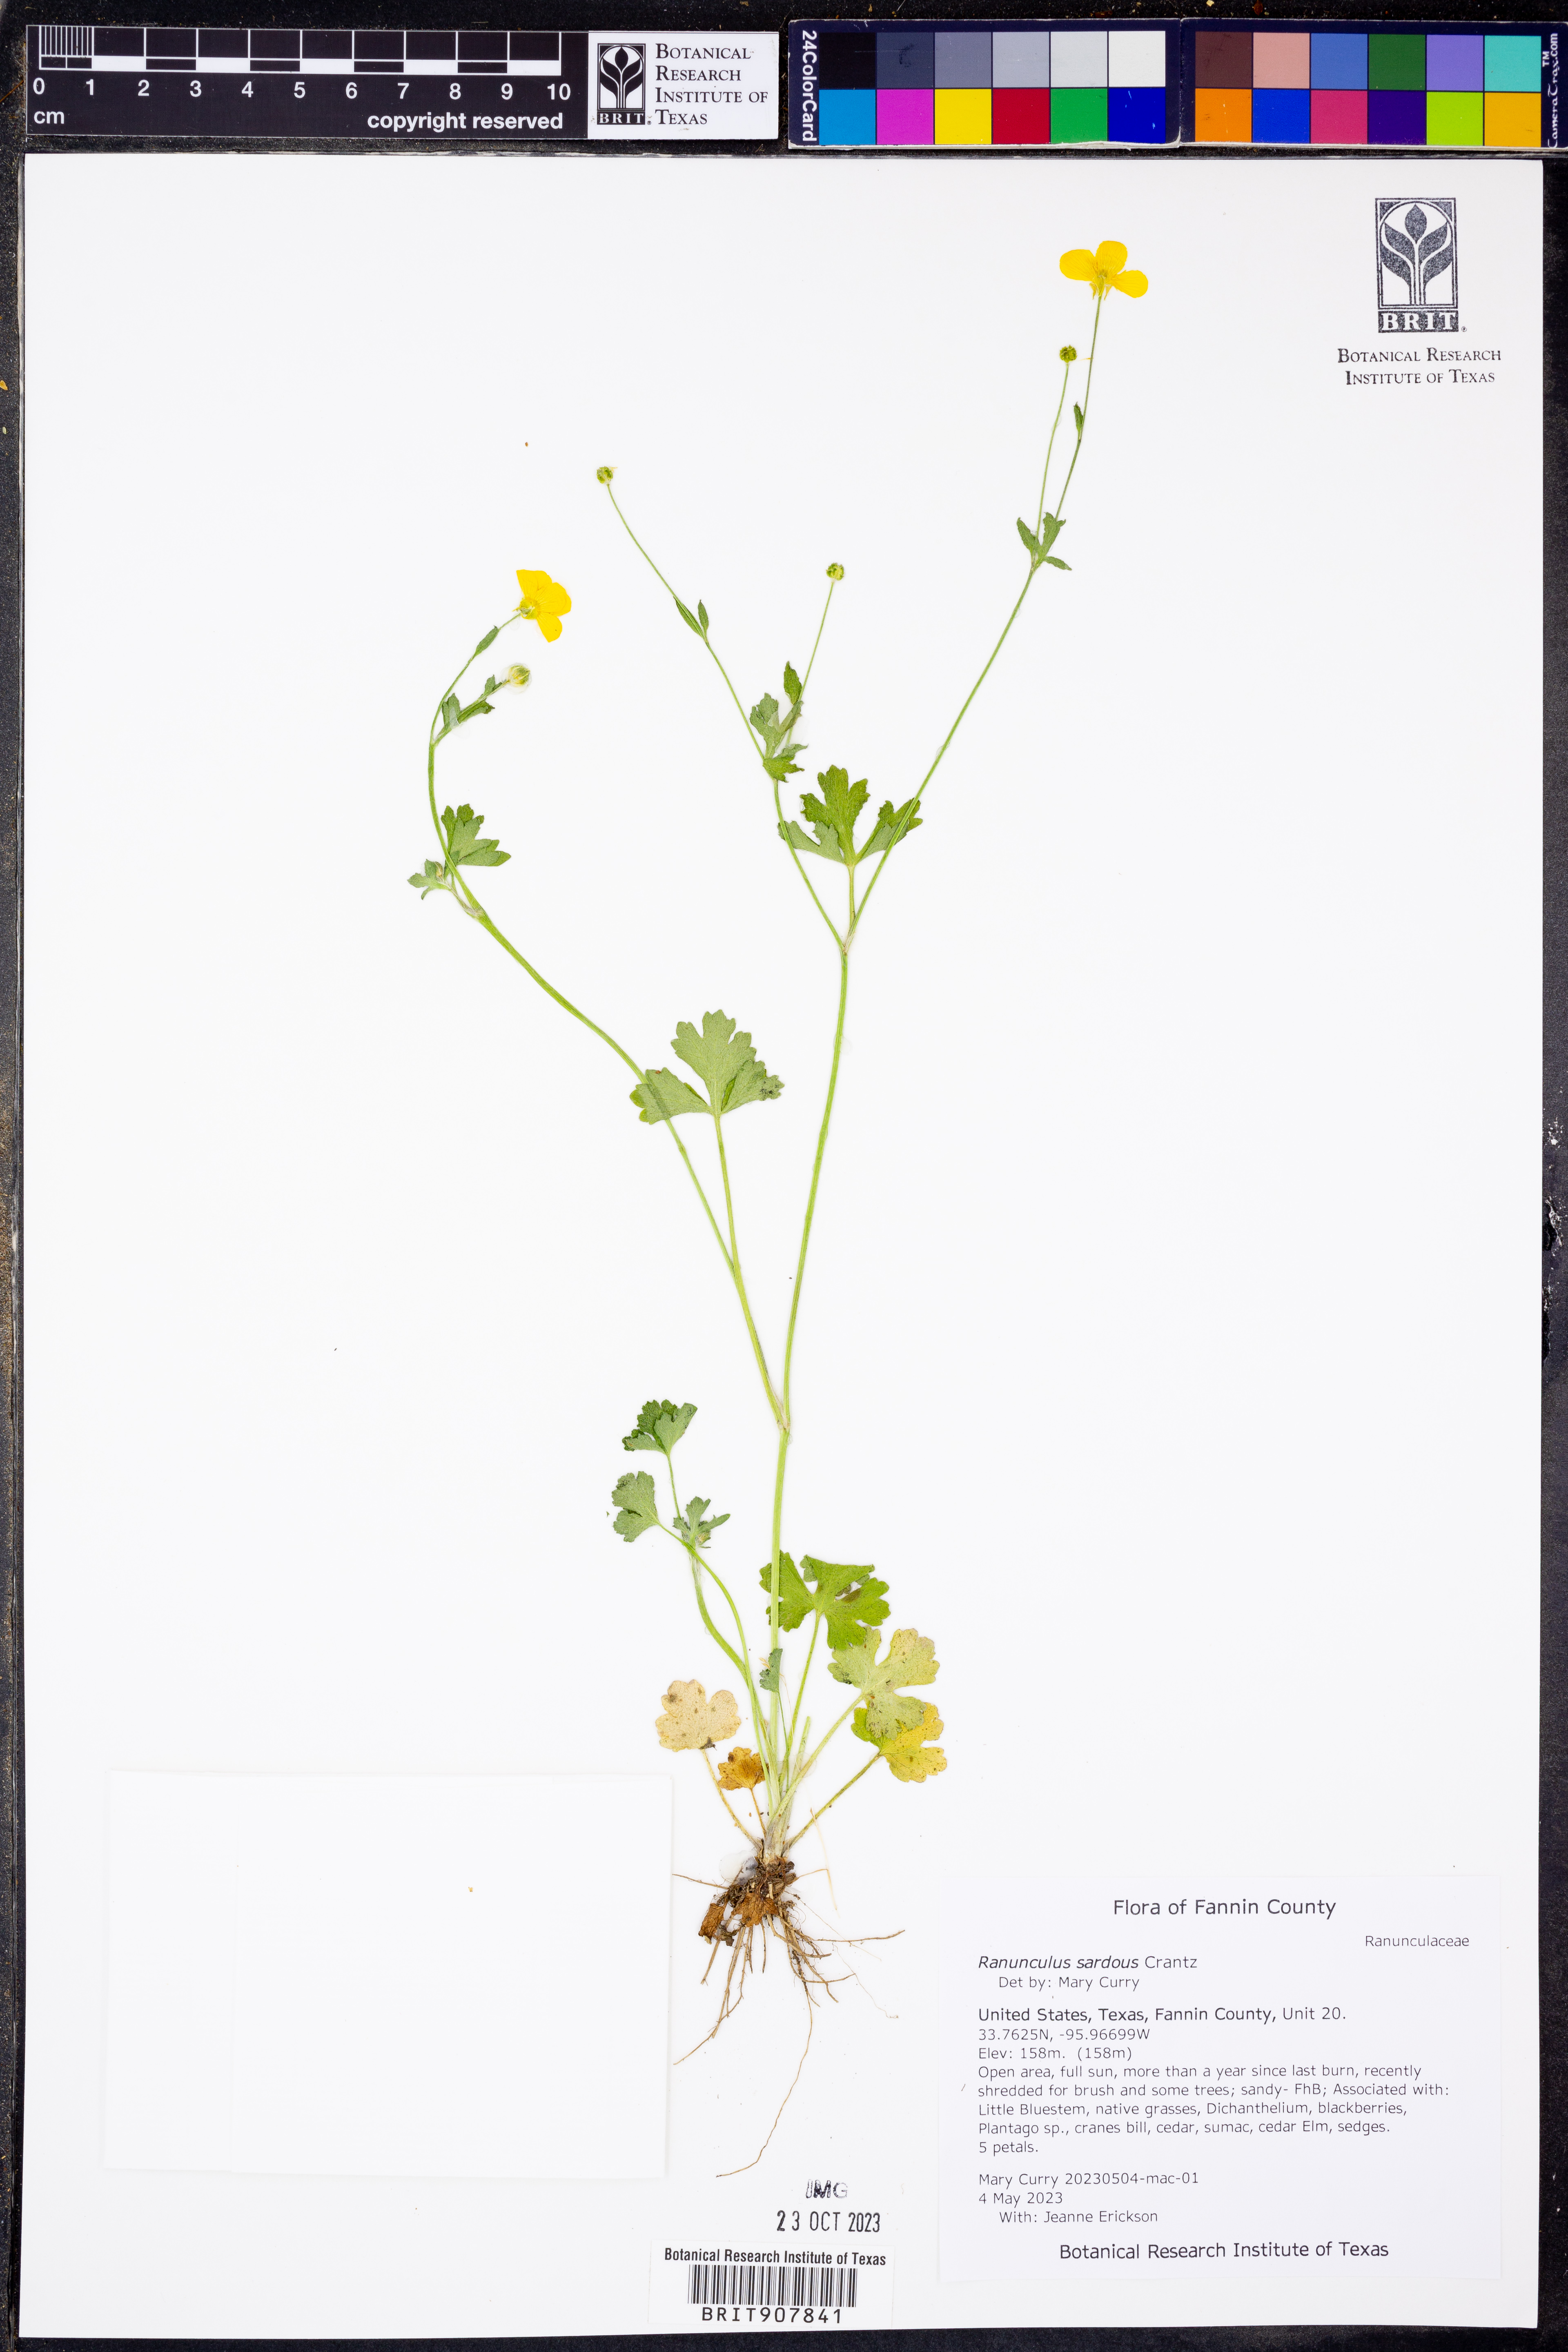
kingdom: Plantae
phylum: Tracheophyta
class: Magnoliopsida
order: Ranunculales
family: Ranunculaceae
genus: Ranunculus
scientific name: Ranunculus sardous
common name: Hairy buttercup
